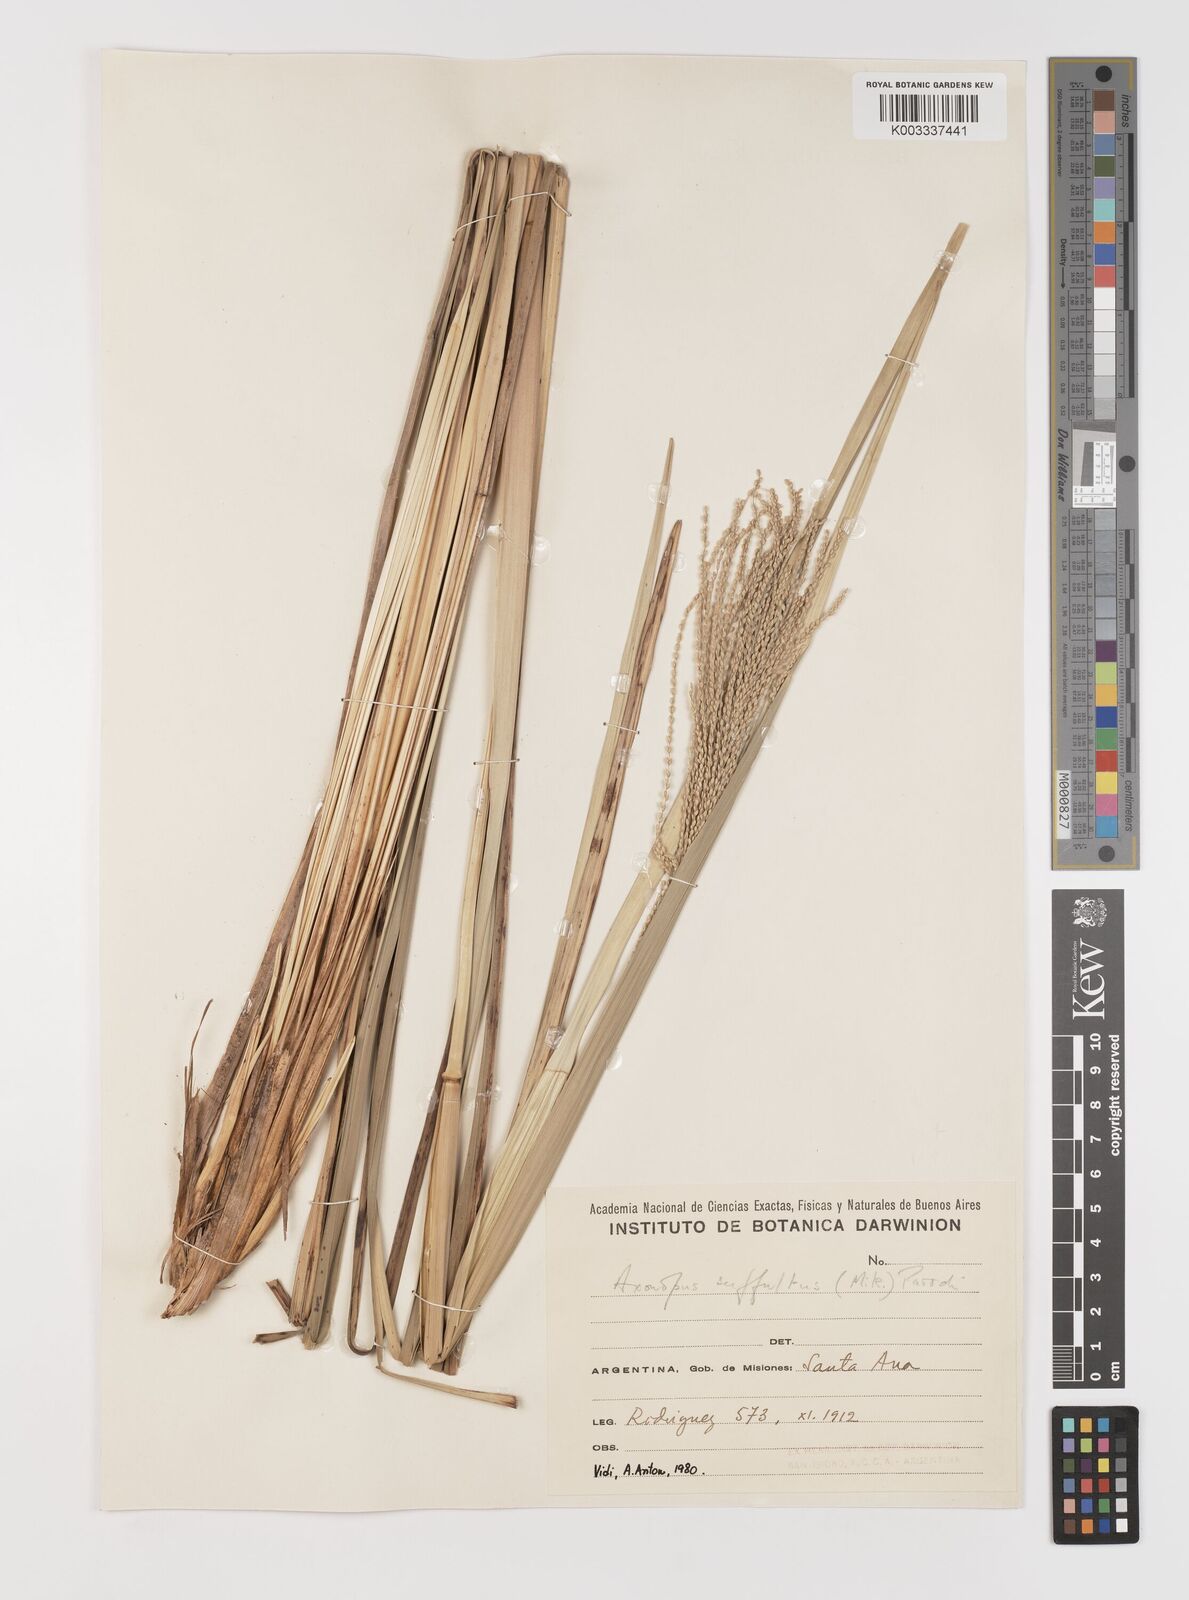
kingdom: Plantae
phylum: Tracheophyta
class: Liliopsida
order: Poales
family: Poaceae
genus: Axonopus
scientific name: Axonopus suffultus
